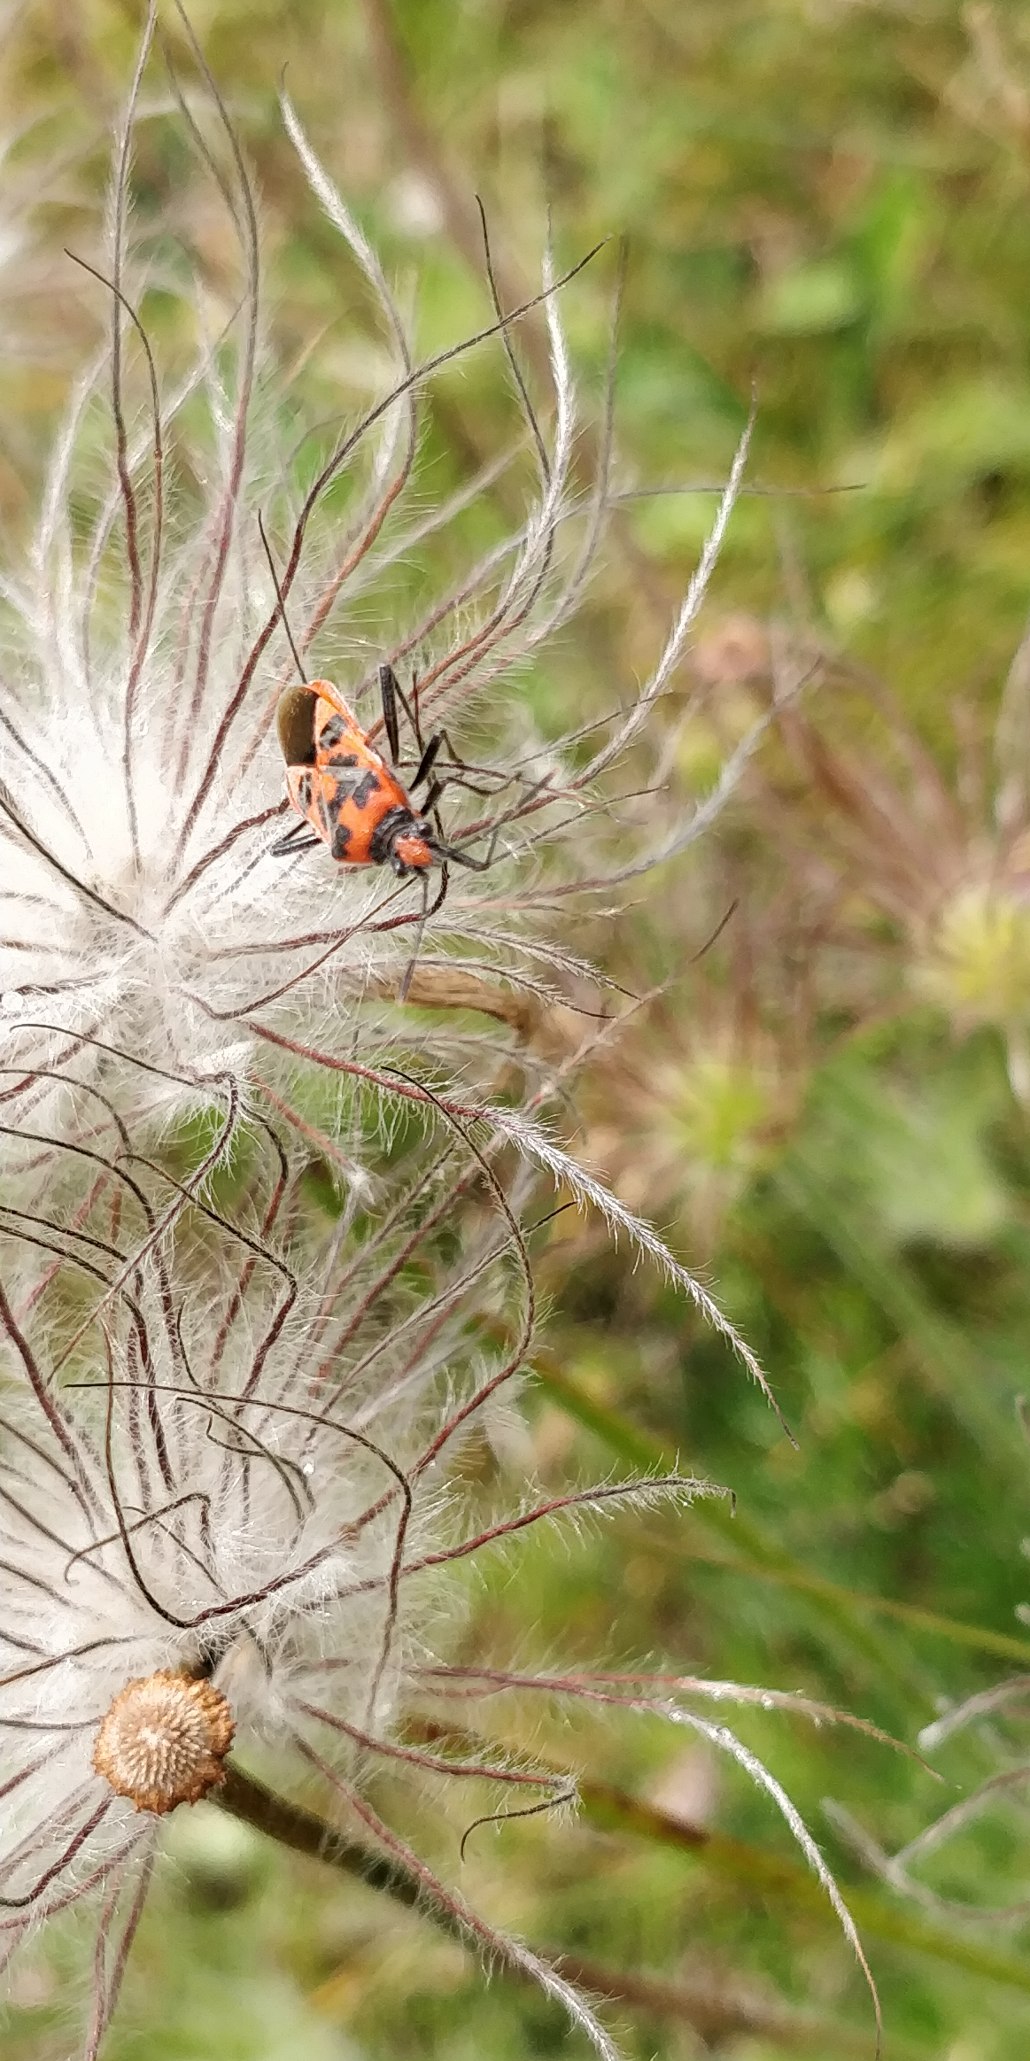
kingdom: Animalia
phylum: Arthropoda
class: Insecta
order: Hemiptera
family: Rhopalidae
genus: Corizus
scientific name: Corizus hyoscyami
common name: Rød kanttæge
